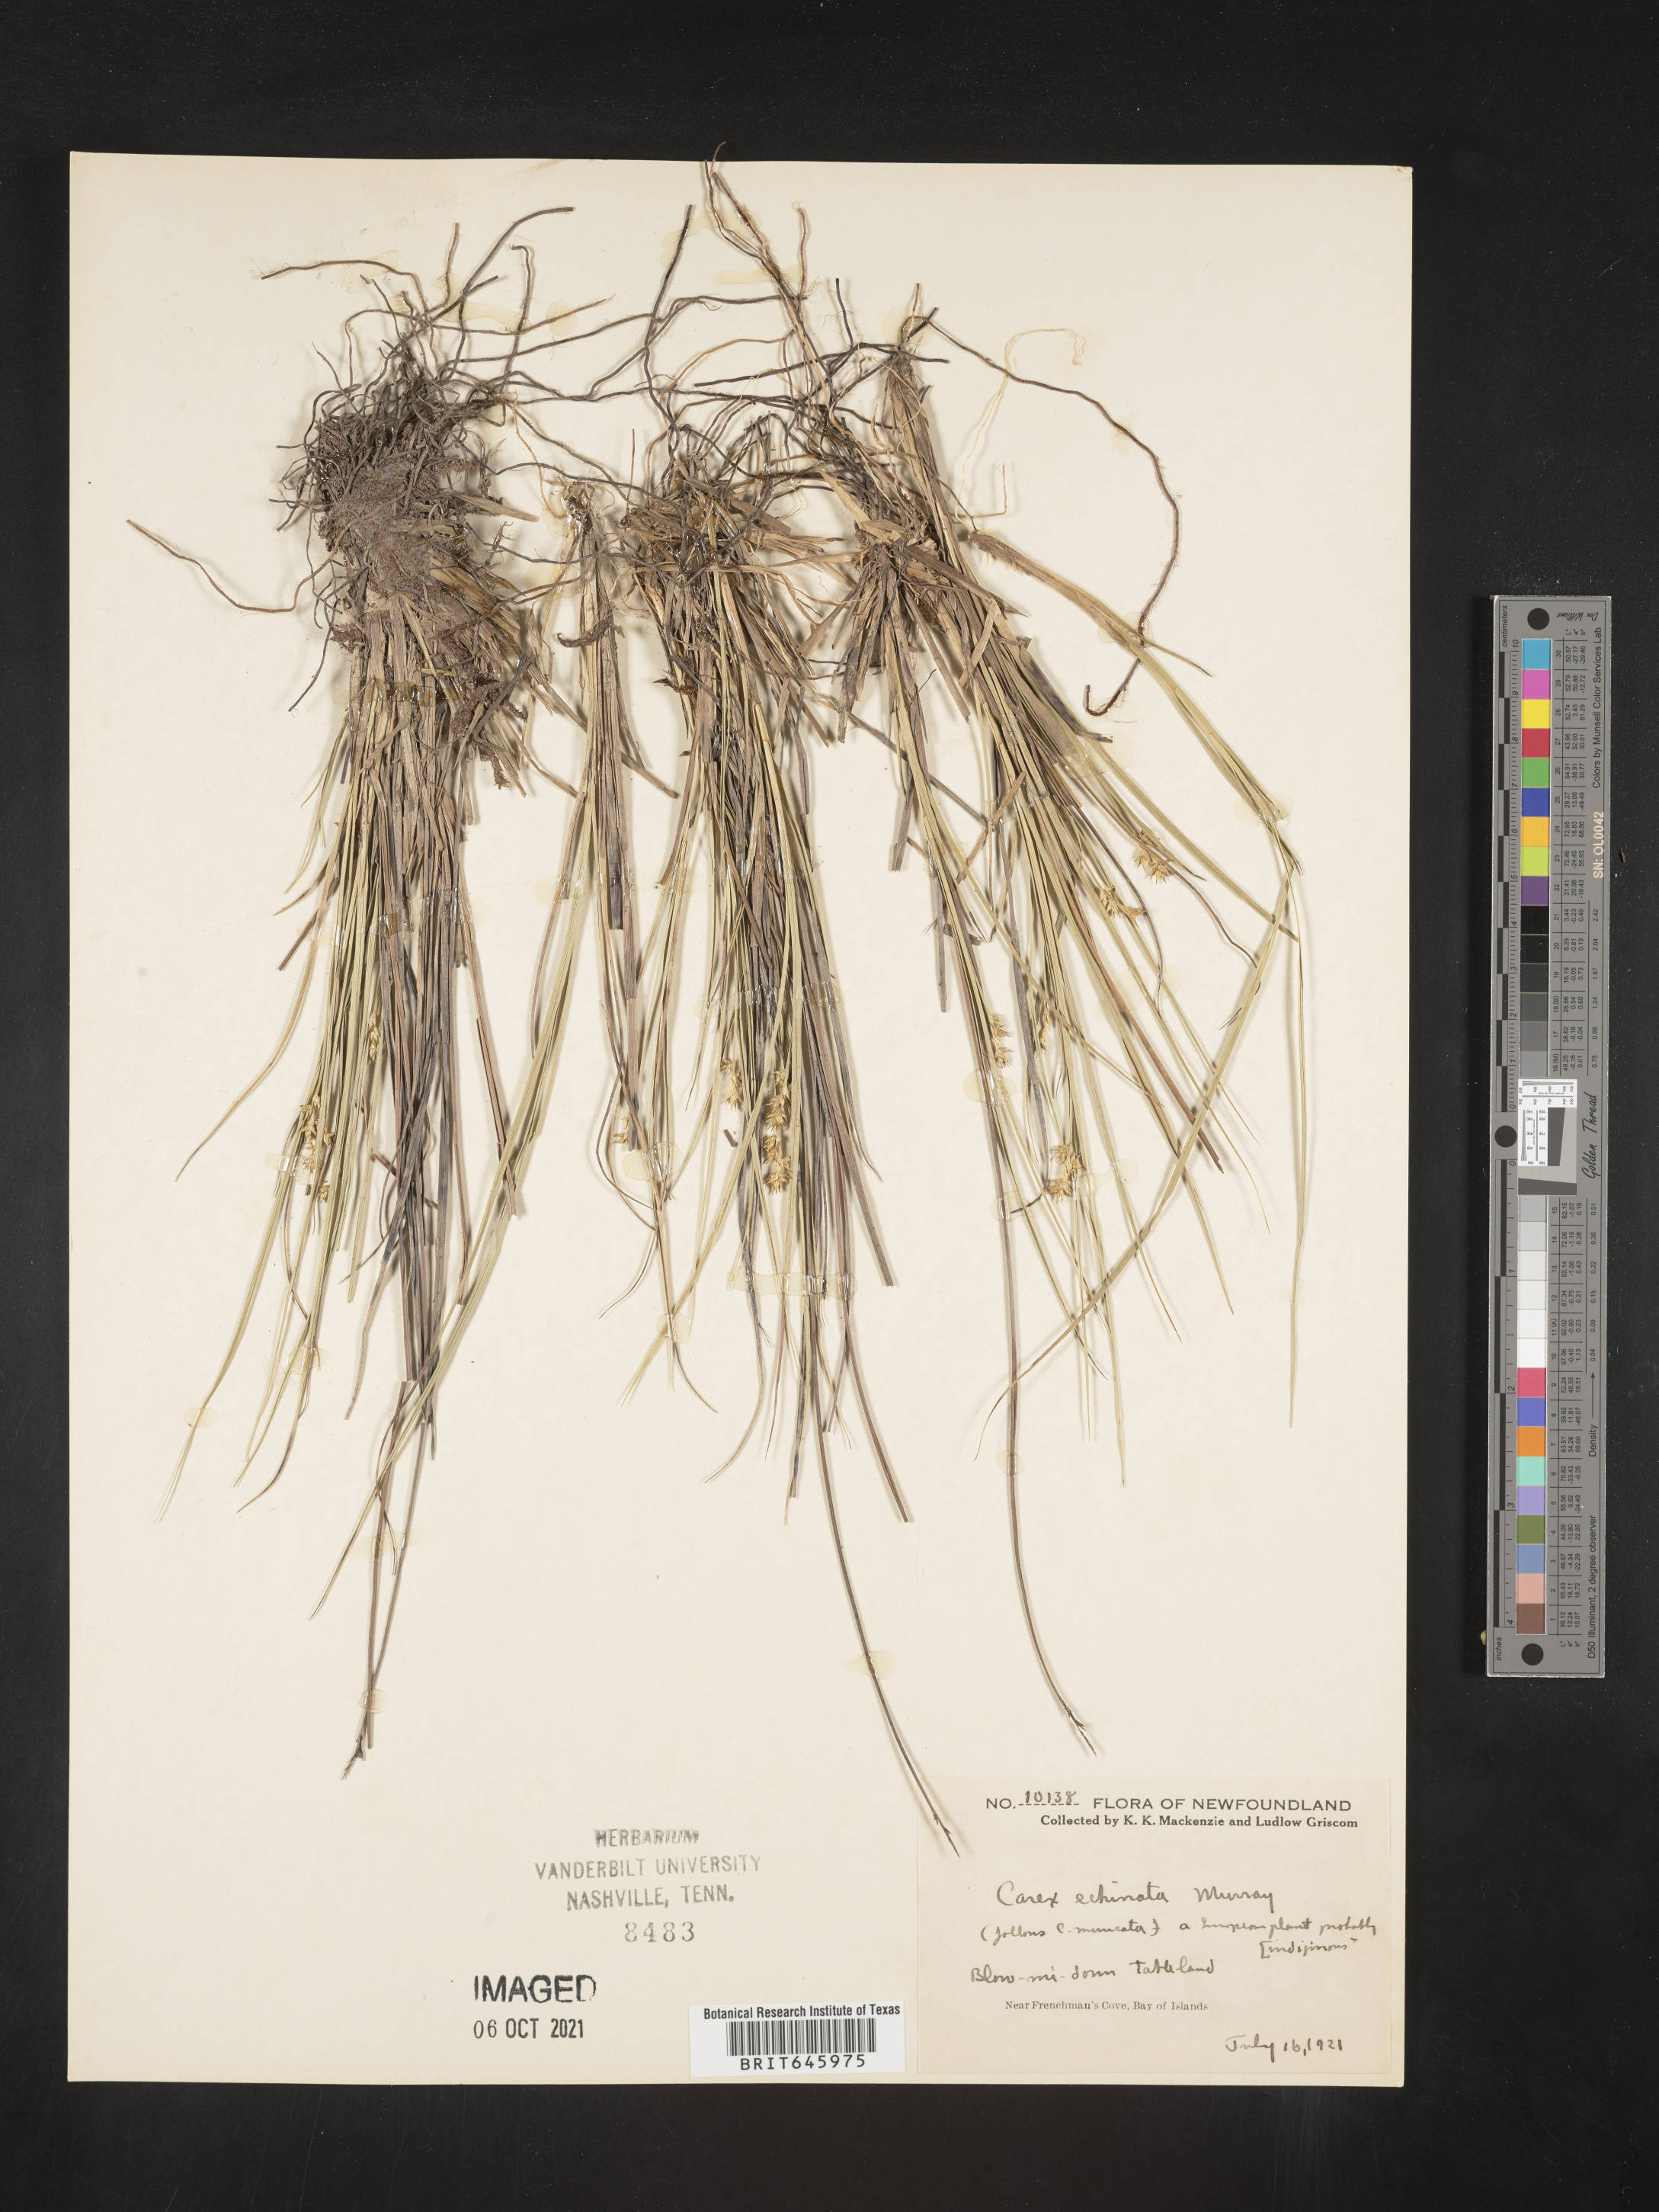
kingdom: Plantae
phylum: Tracheophyta
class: Liliopsida
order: Poales
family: Cyperaceae
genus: Carex
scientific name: Carex echinata
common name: Star sedge
